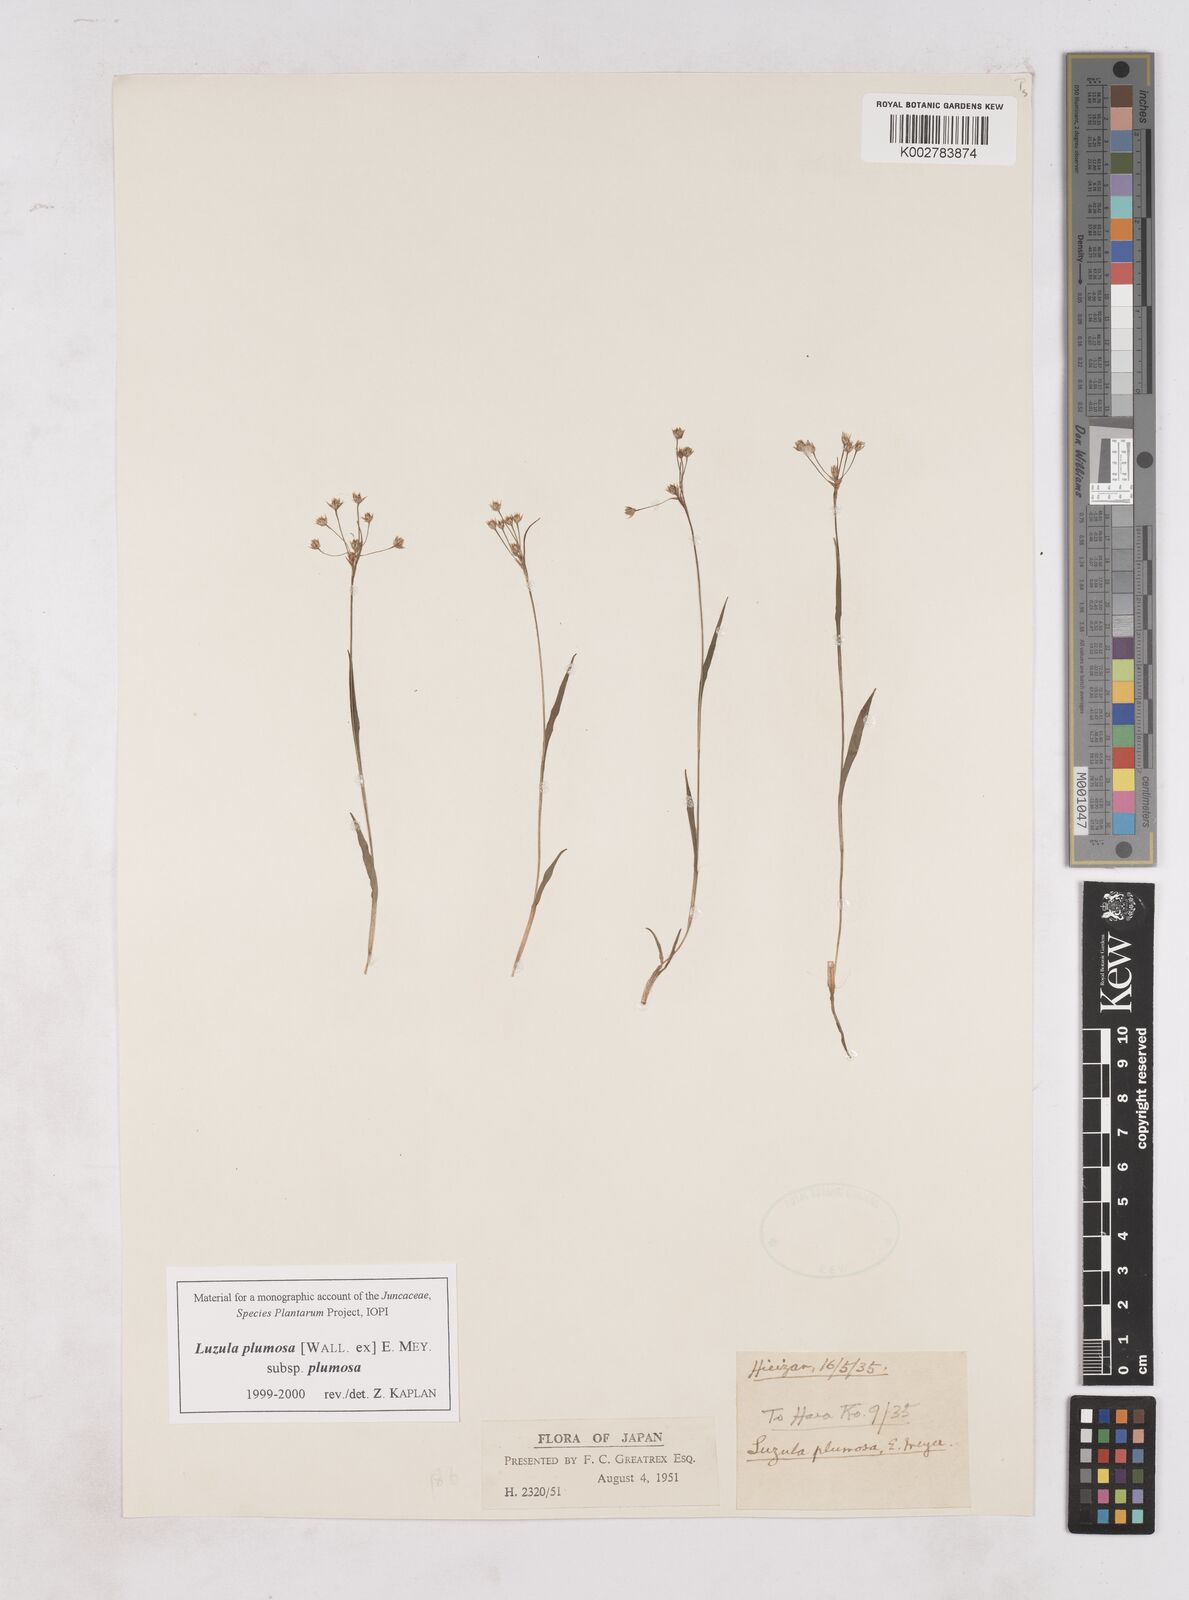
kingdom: Plantae
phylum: Tracheophyta
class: Liliopsida
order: Poales
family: Juncaceae
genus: Luzula
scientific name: Luzula plumosa
